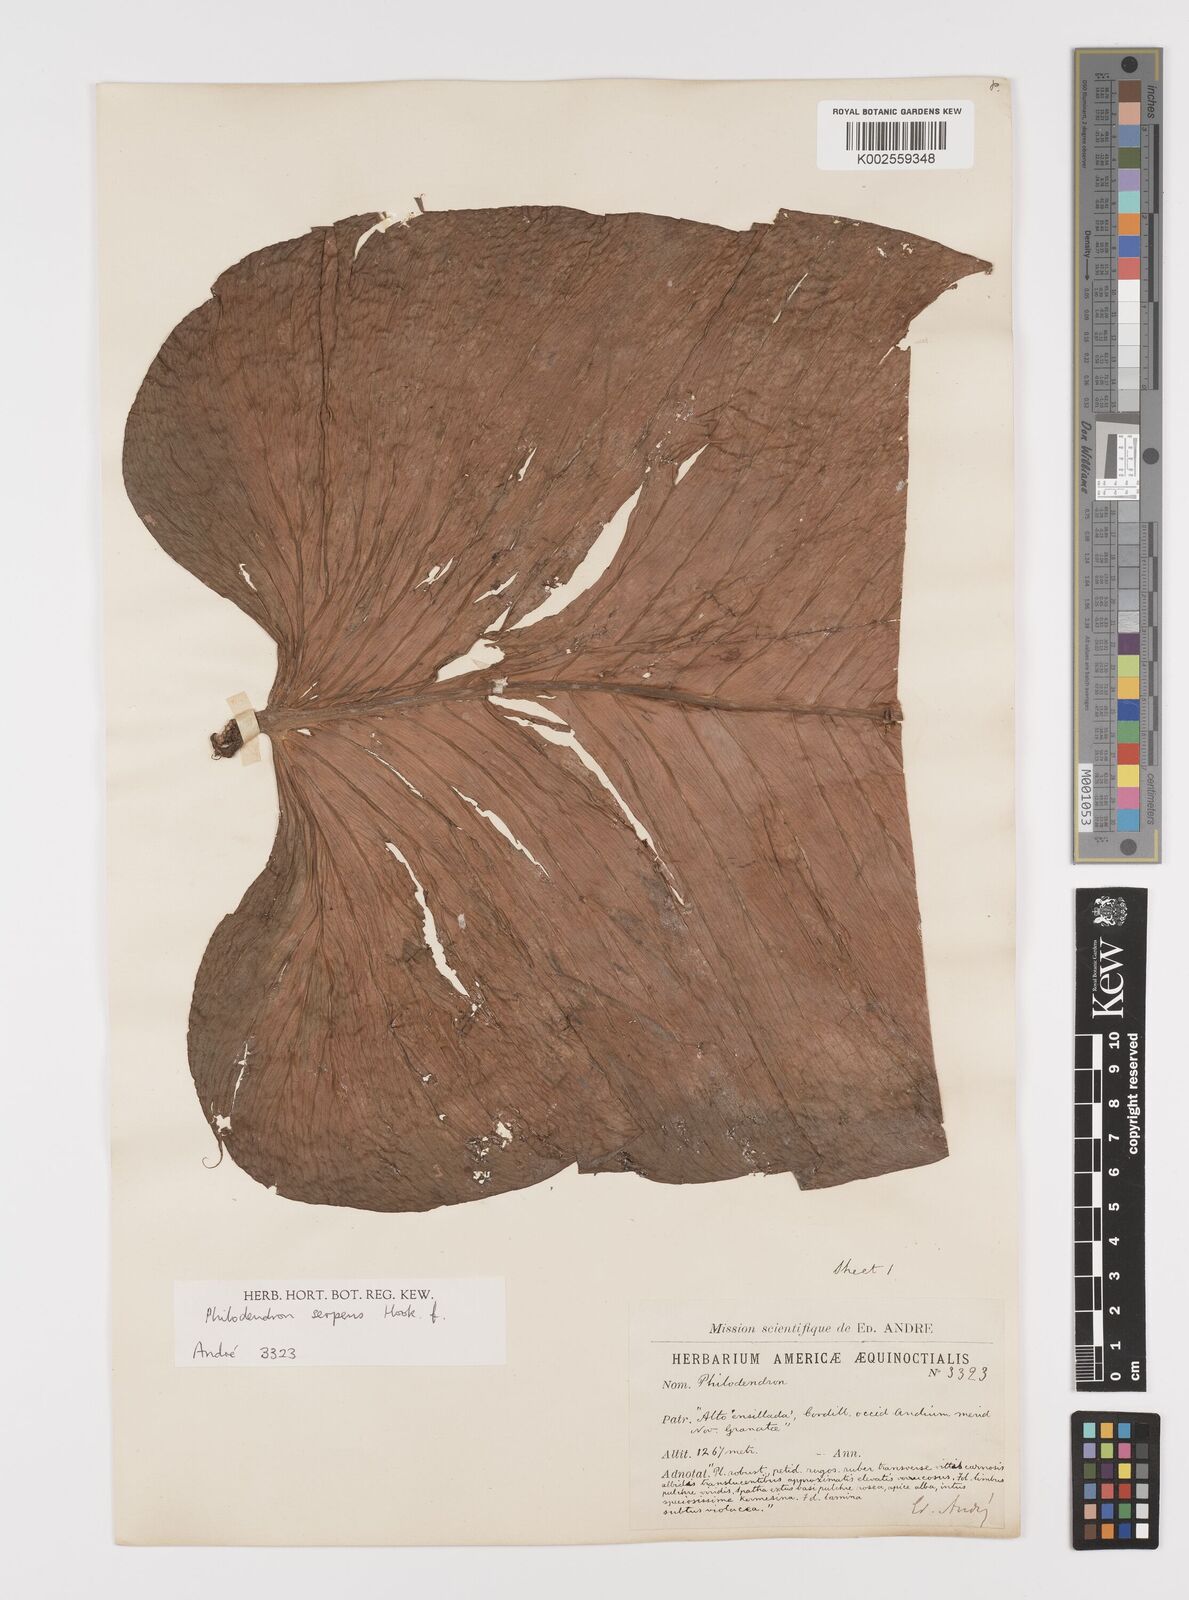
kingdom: Plantae
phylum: Tracheophyta
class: Liliopsida
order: Alismatales
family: Araceae
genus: Philodendron
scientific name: Philodendron serpens
